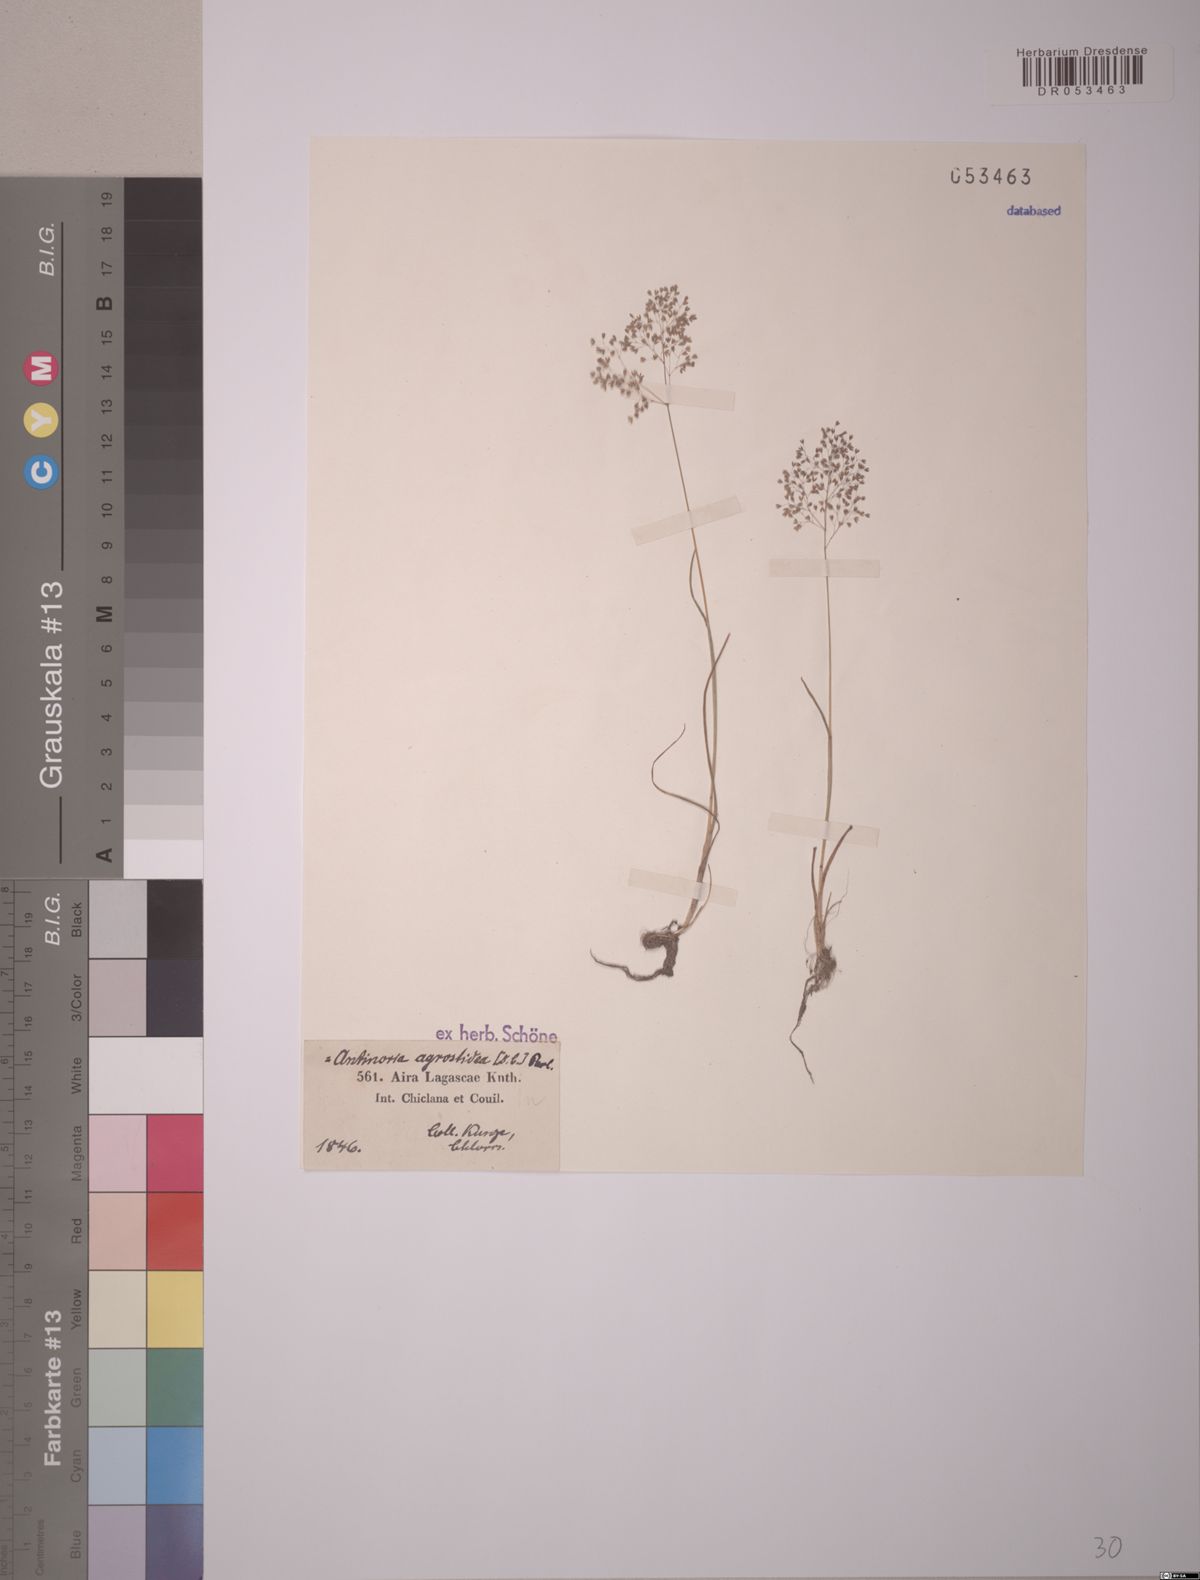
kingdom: Plantae
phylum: Tracheophyta
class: Liliopsida
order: Poales
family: Poaceae
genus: Antinoria
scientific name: Antinoria agrostidea
